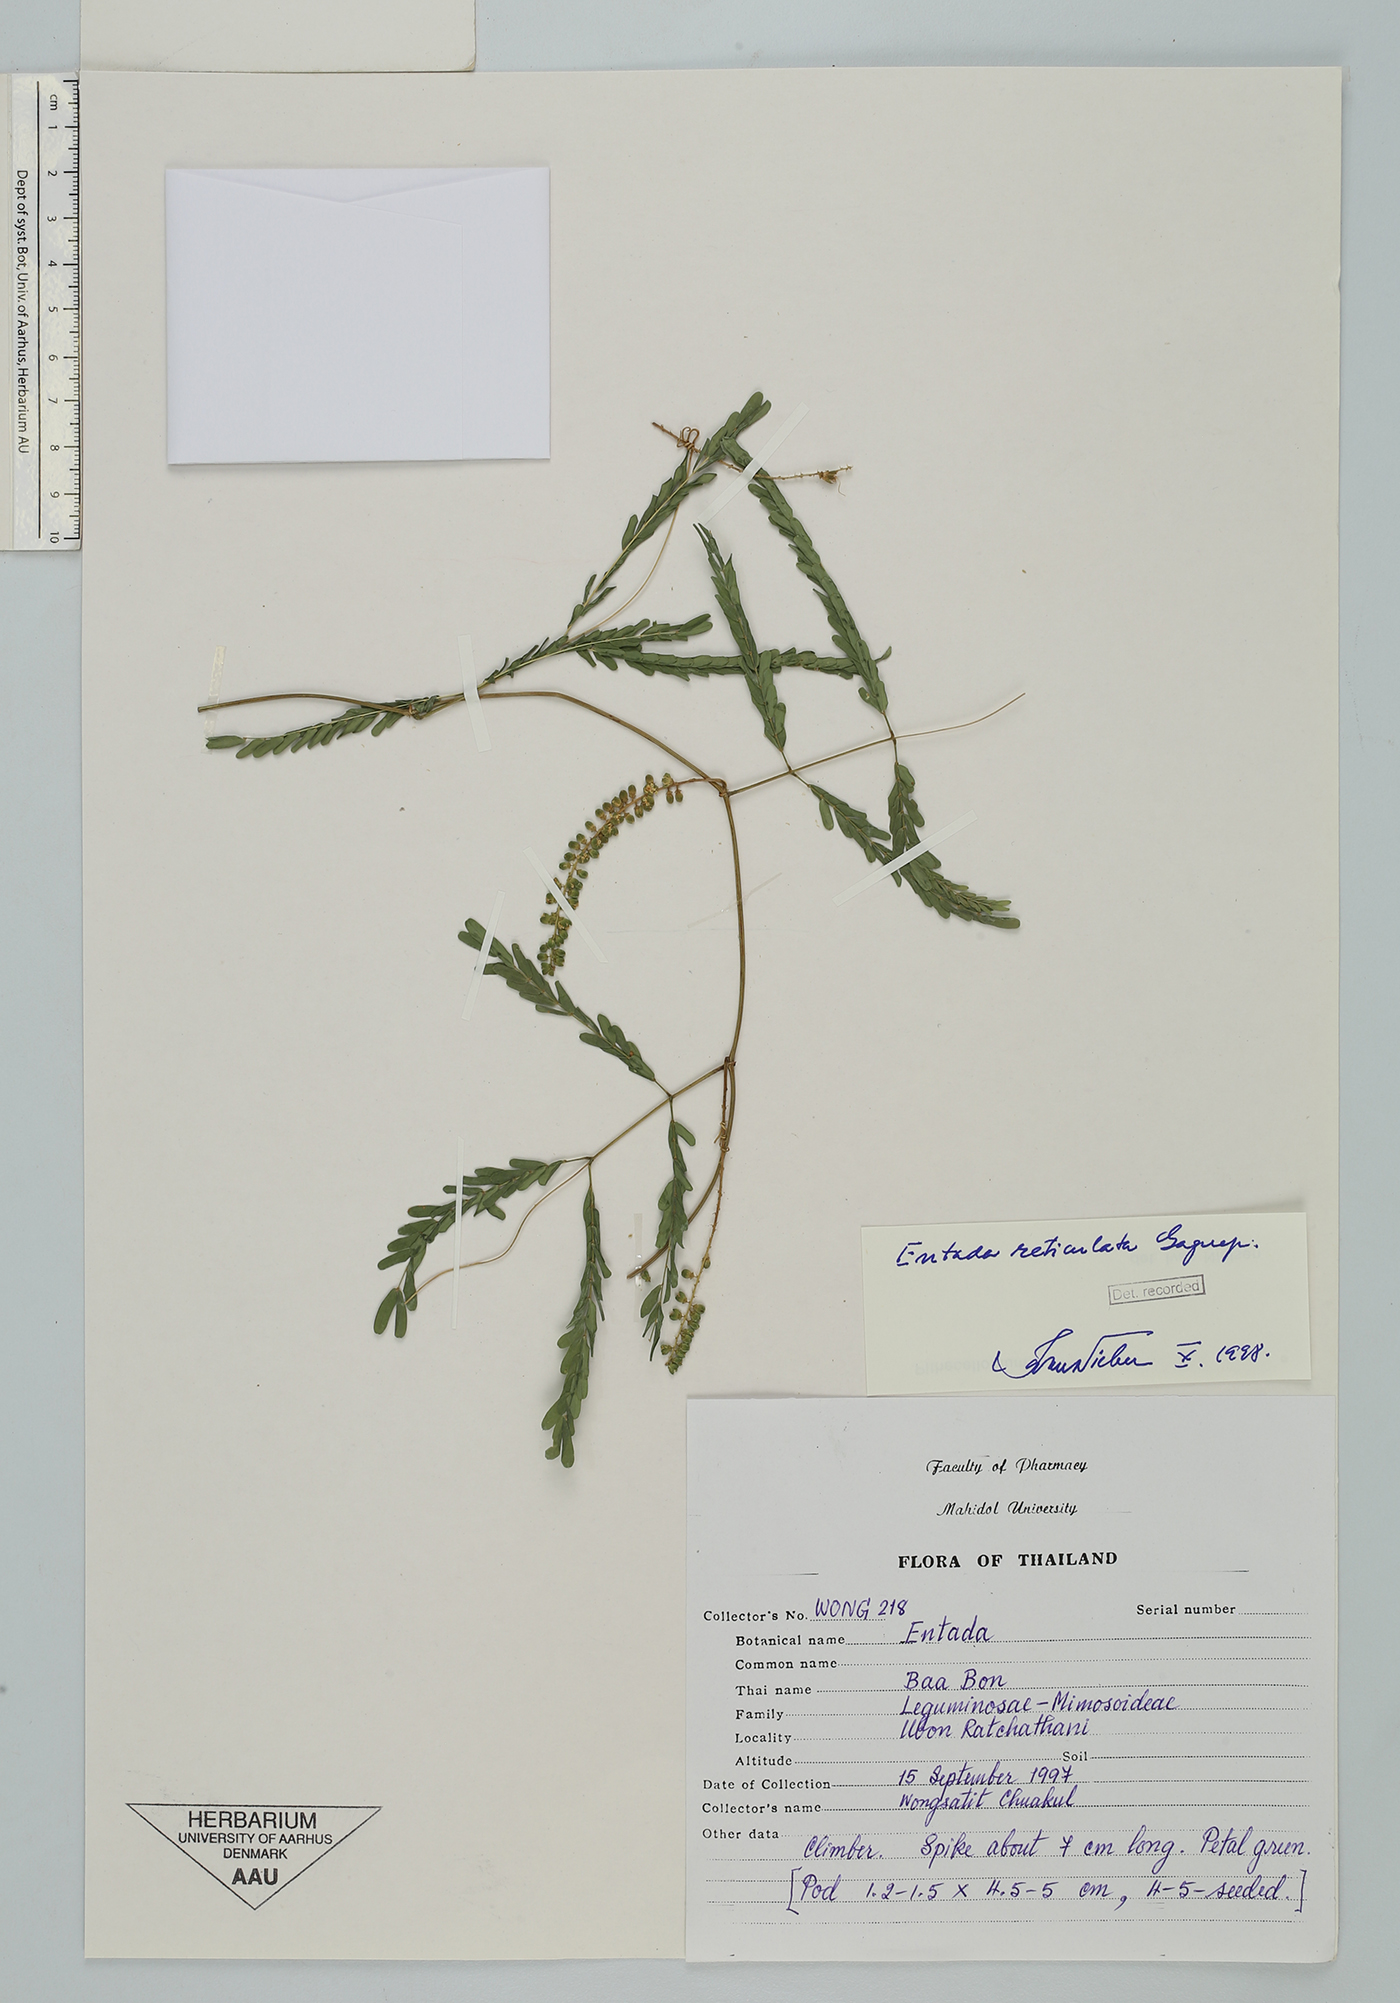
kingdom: Plantae
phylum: Tracheophyta
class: Magnoliopsida
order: Fabales
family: Fabaceae
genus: Entada
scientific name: Entada reticulata
